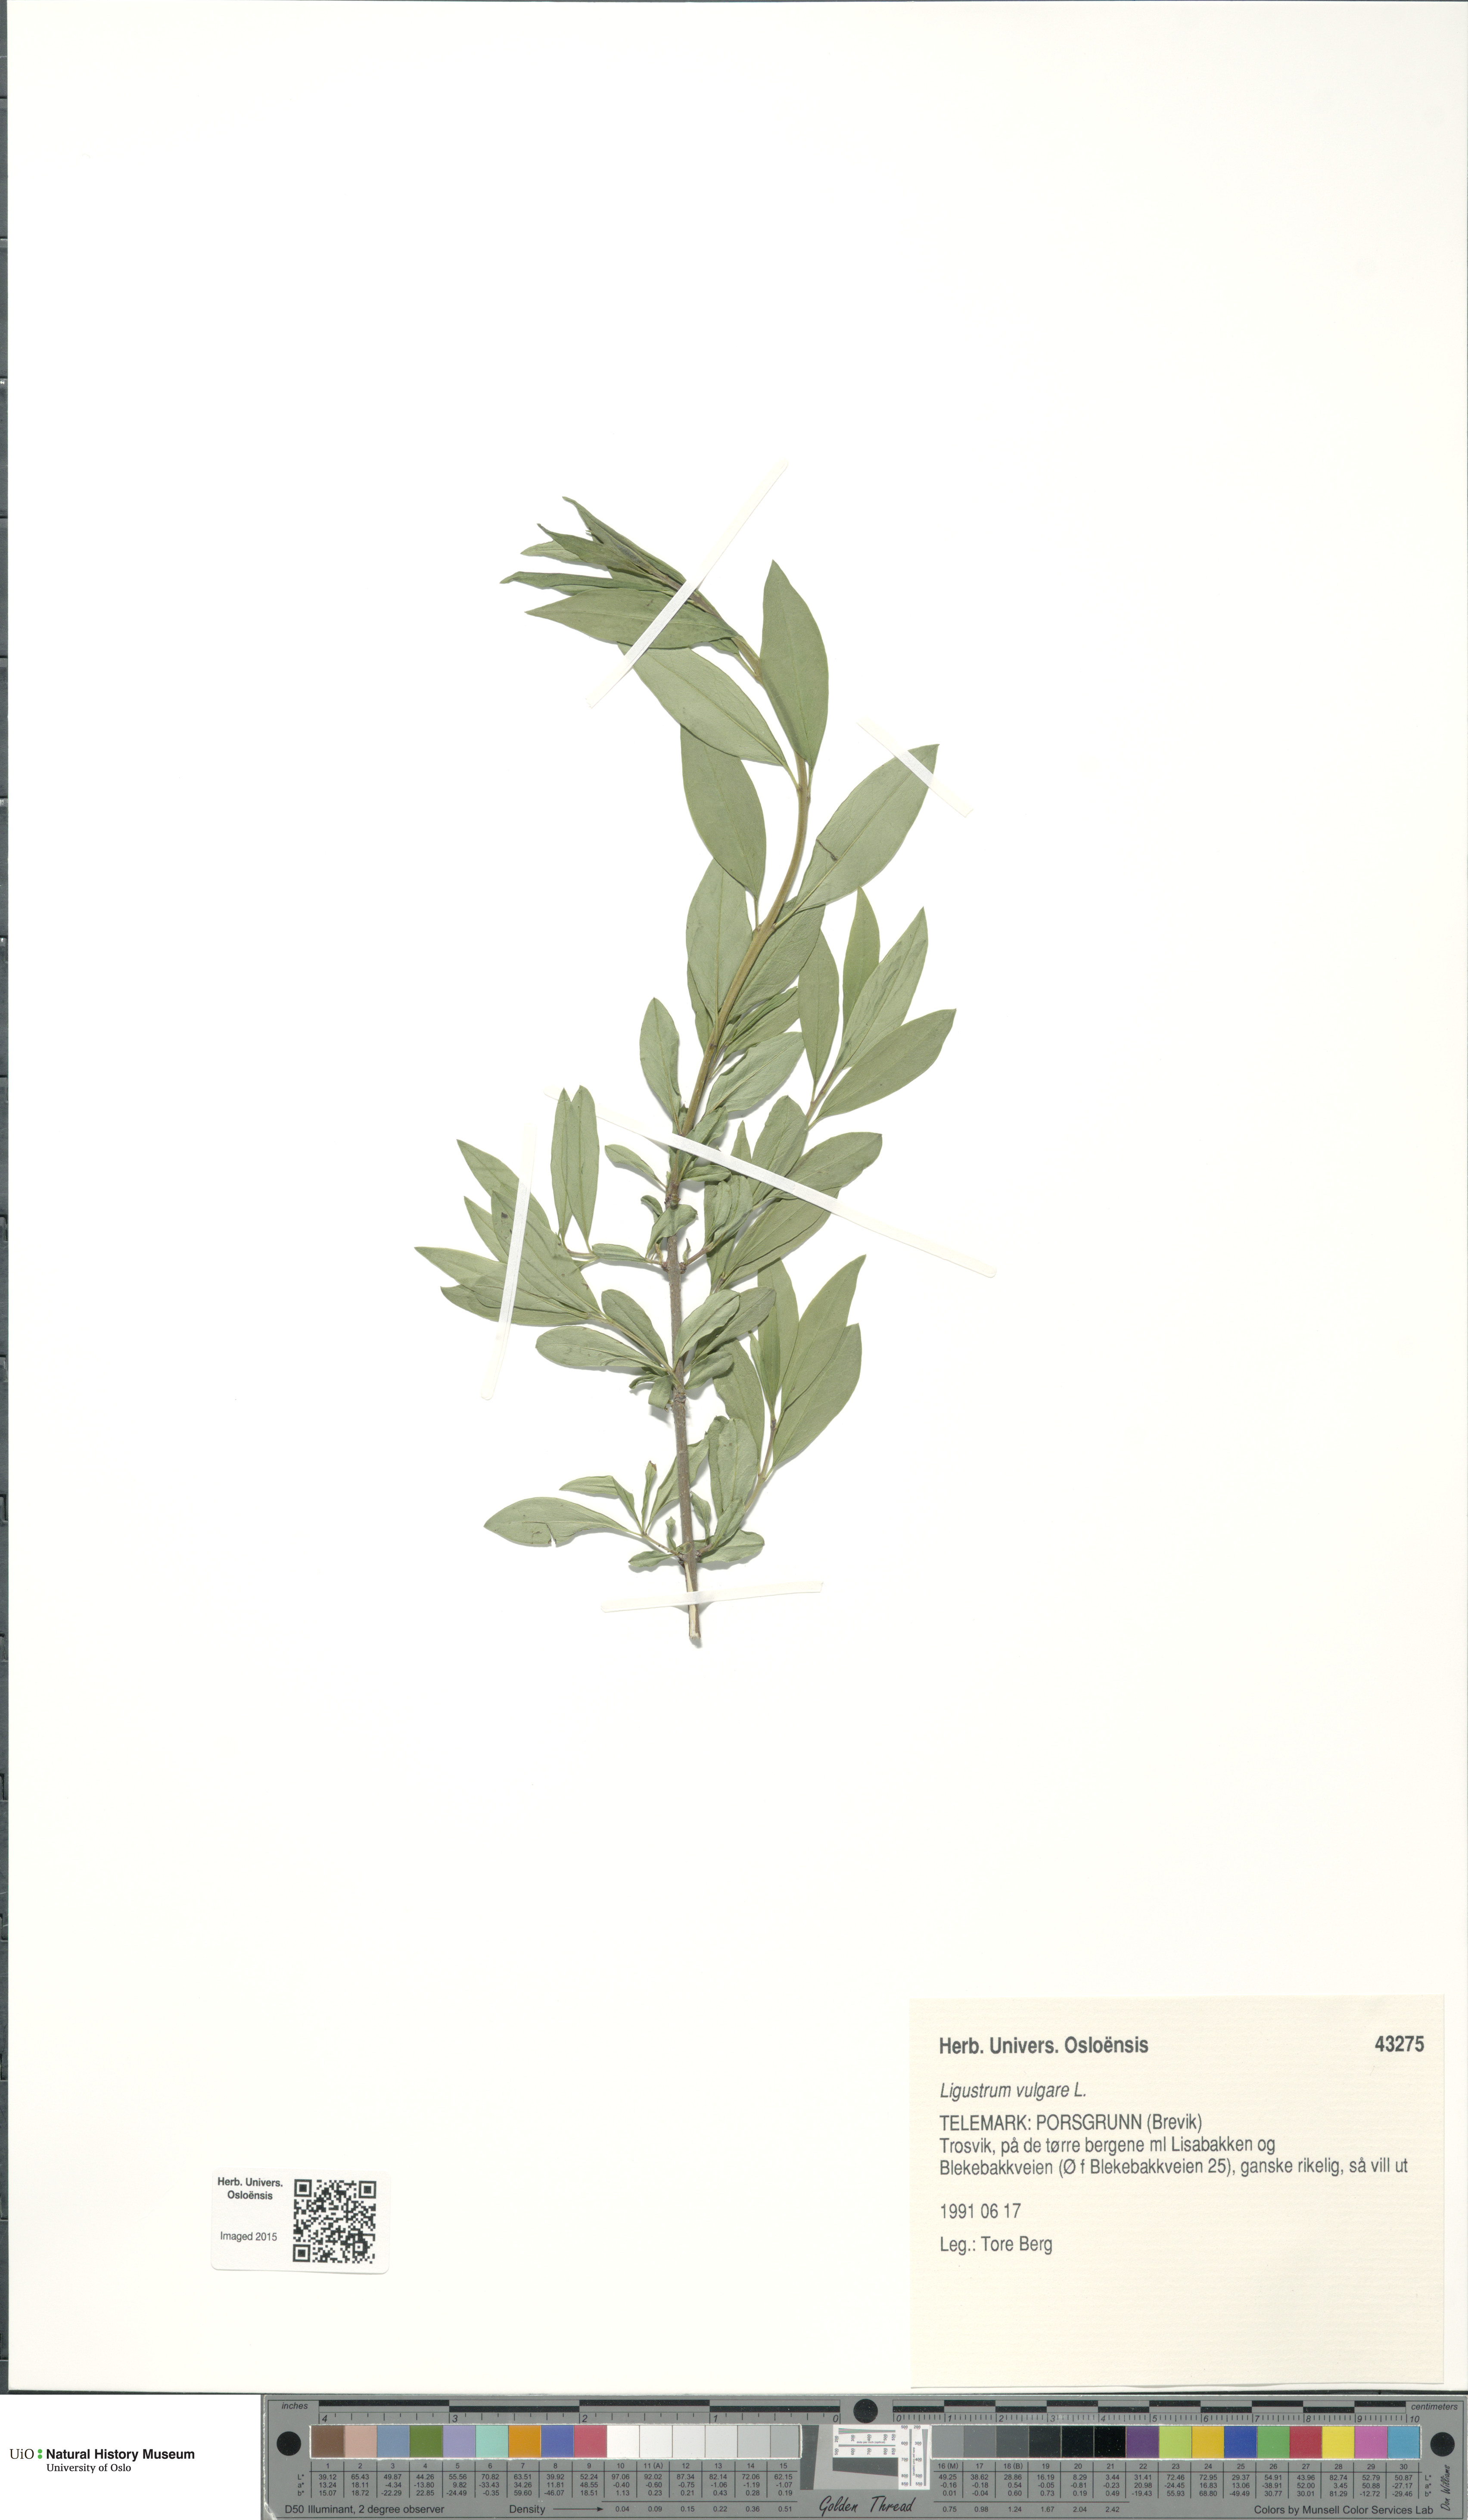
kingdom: Plantae
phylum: Tracheophyta
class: Magnoliopsida
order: Lamiales
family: Oleaceae
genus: Ligustrum
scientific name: Ligustrum vulgare
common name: Wild privet
